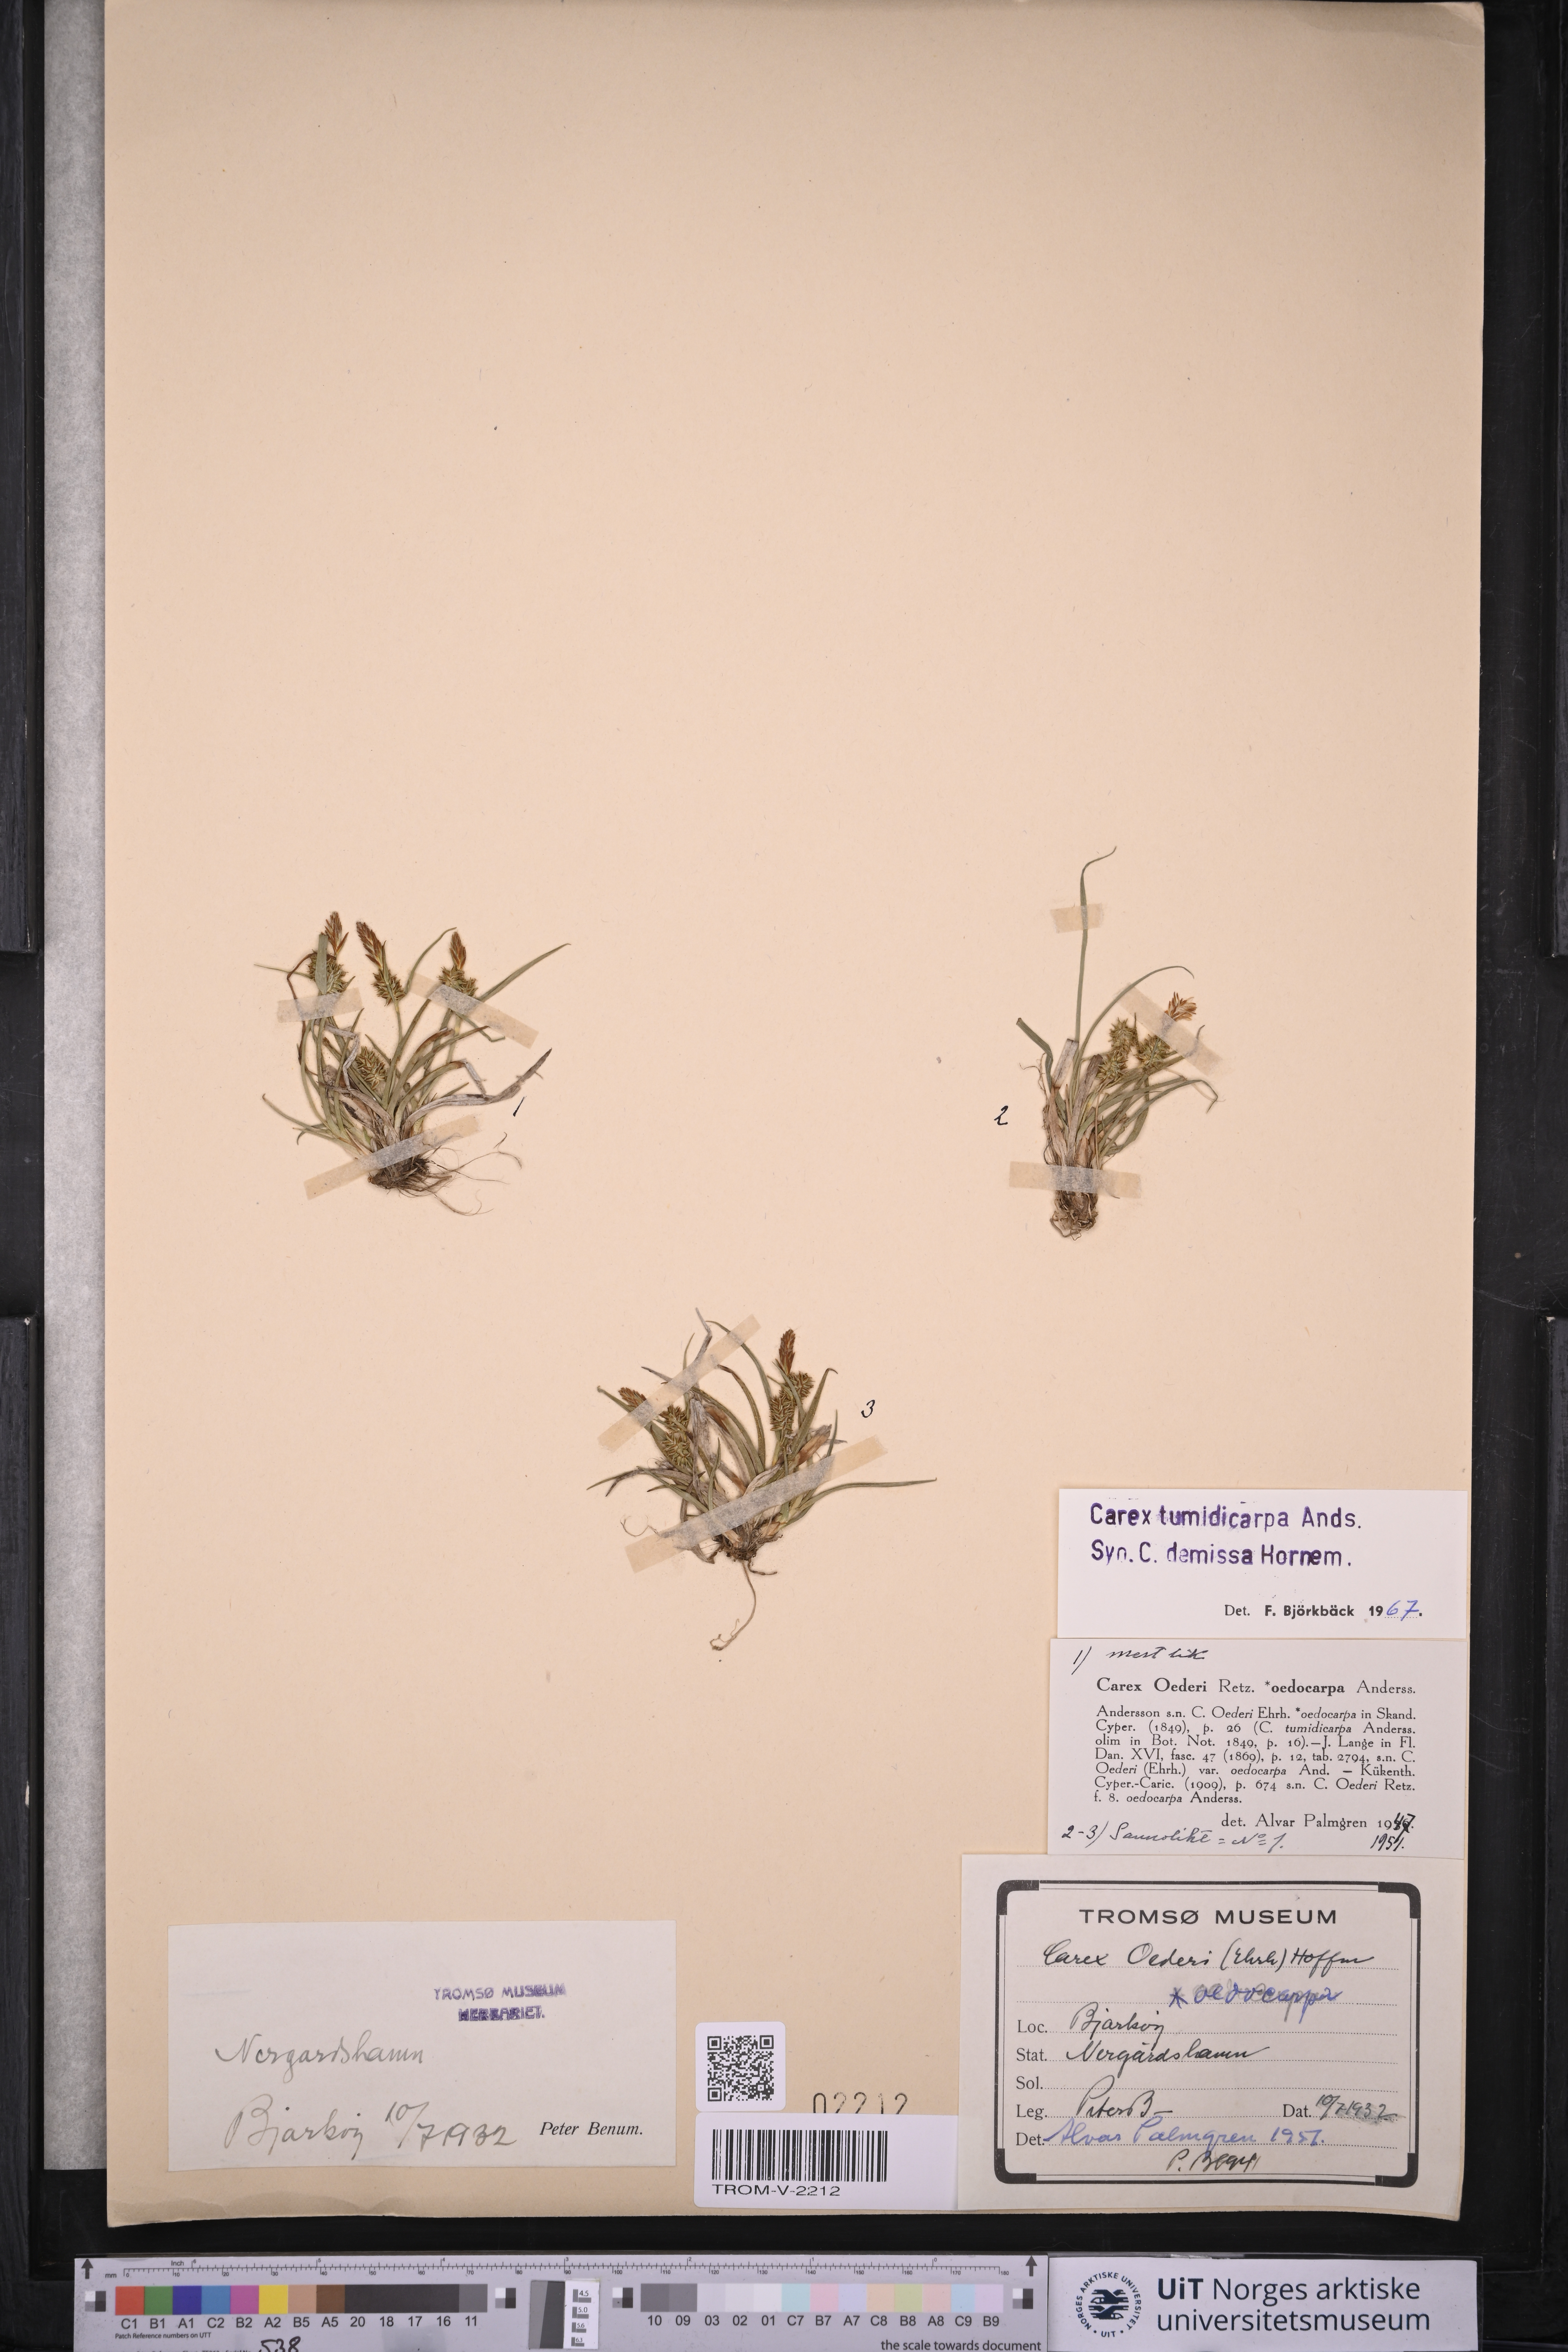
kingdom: Plantae
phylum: Tracheophyta
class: Liliopsida
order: Poales
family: Cyperaceae
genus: Carex
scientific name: Carex demissa
